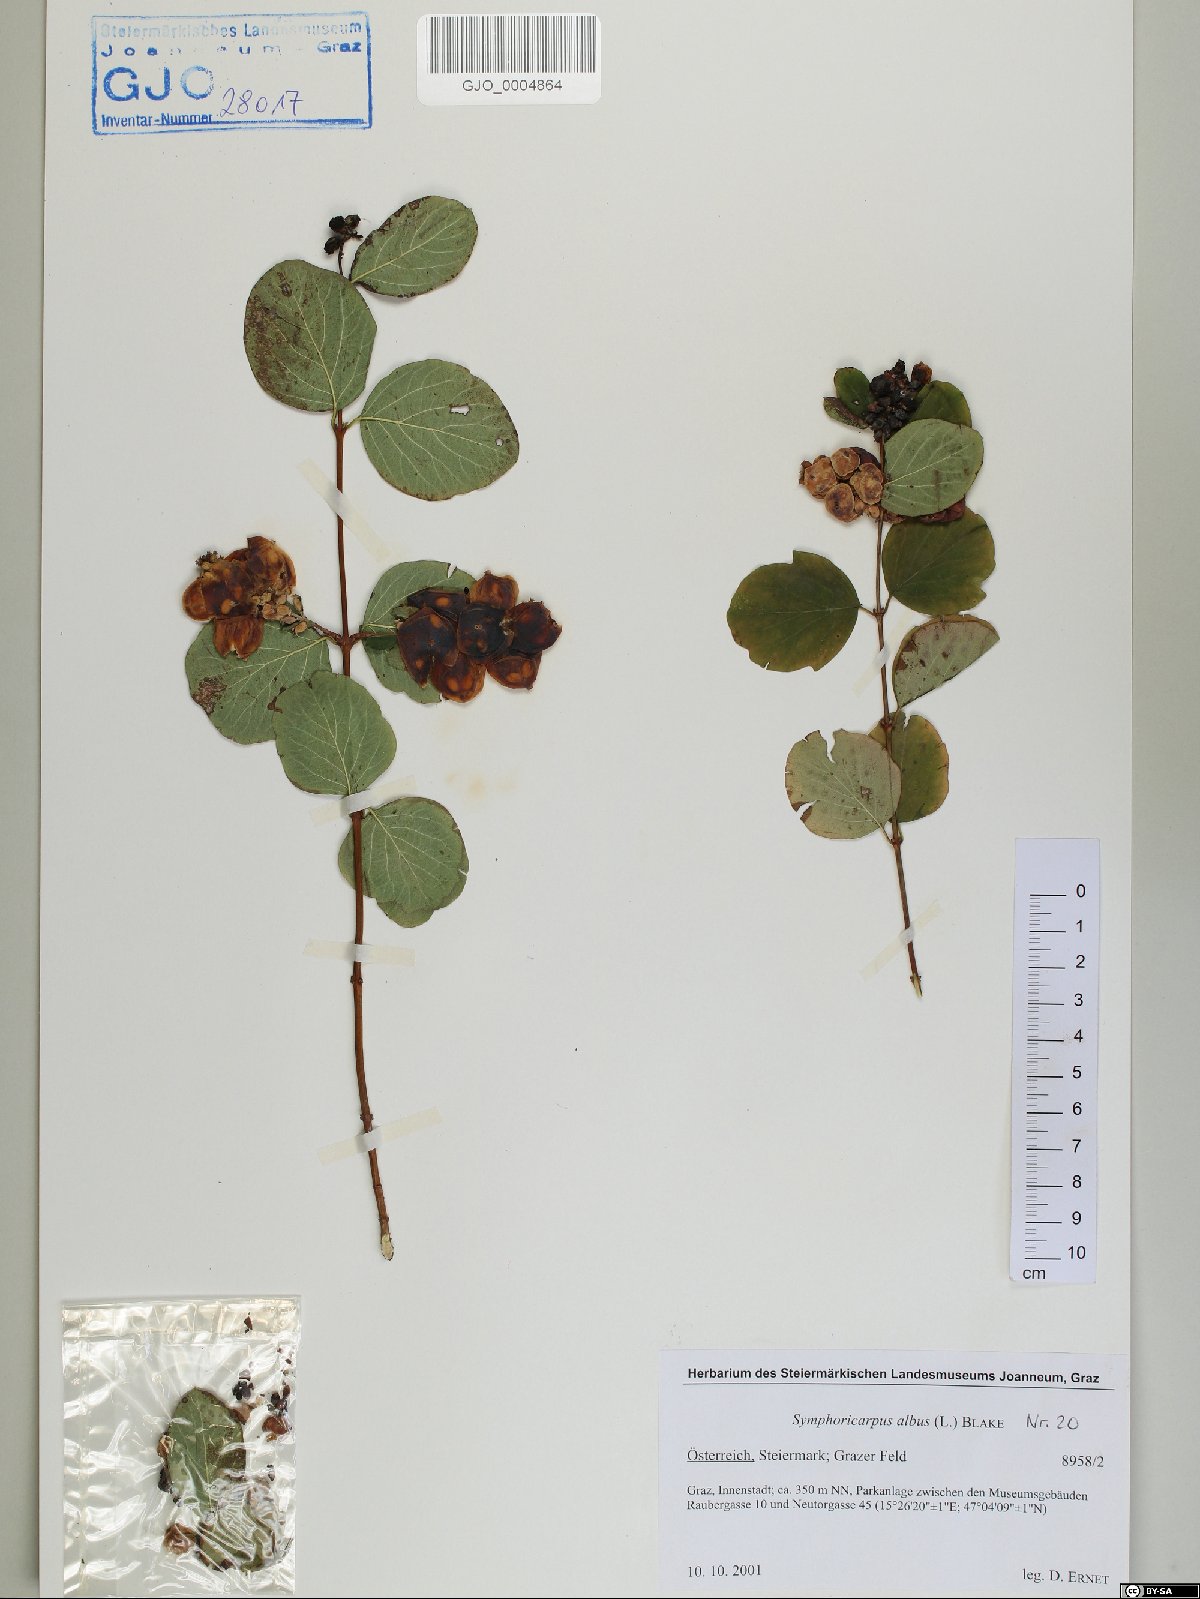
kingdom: Plantae
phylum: Tracheophyta
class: Magnoliopsida
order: Dipsacales
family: Caprifoliaceae
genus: Symphoricarpos
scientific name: Symphoricarpos albus
